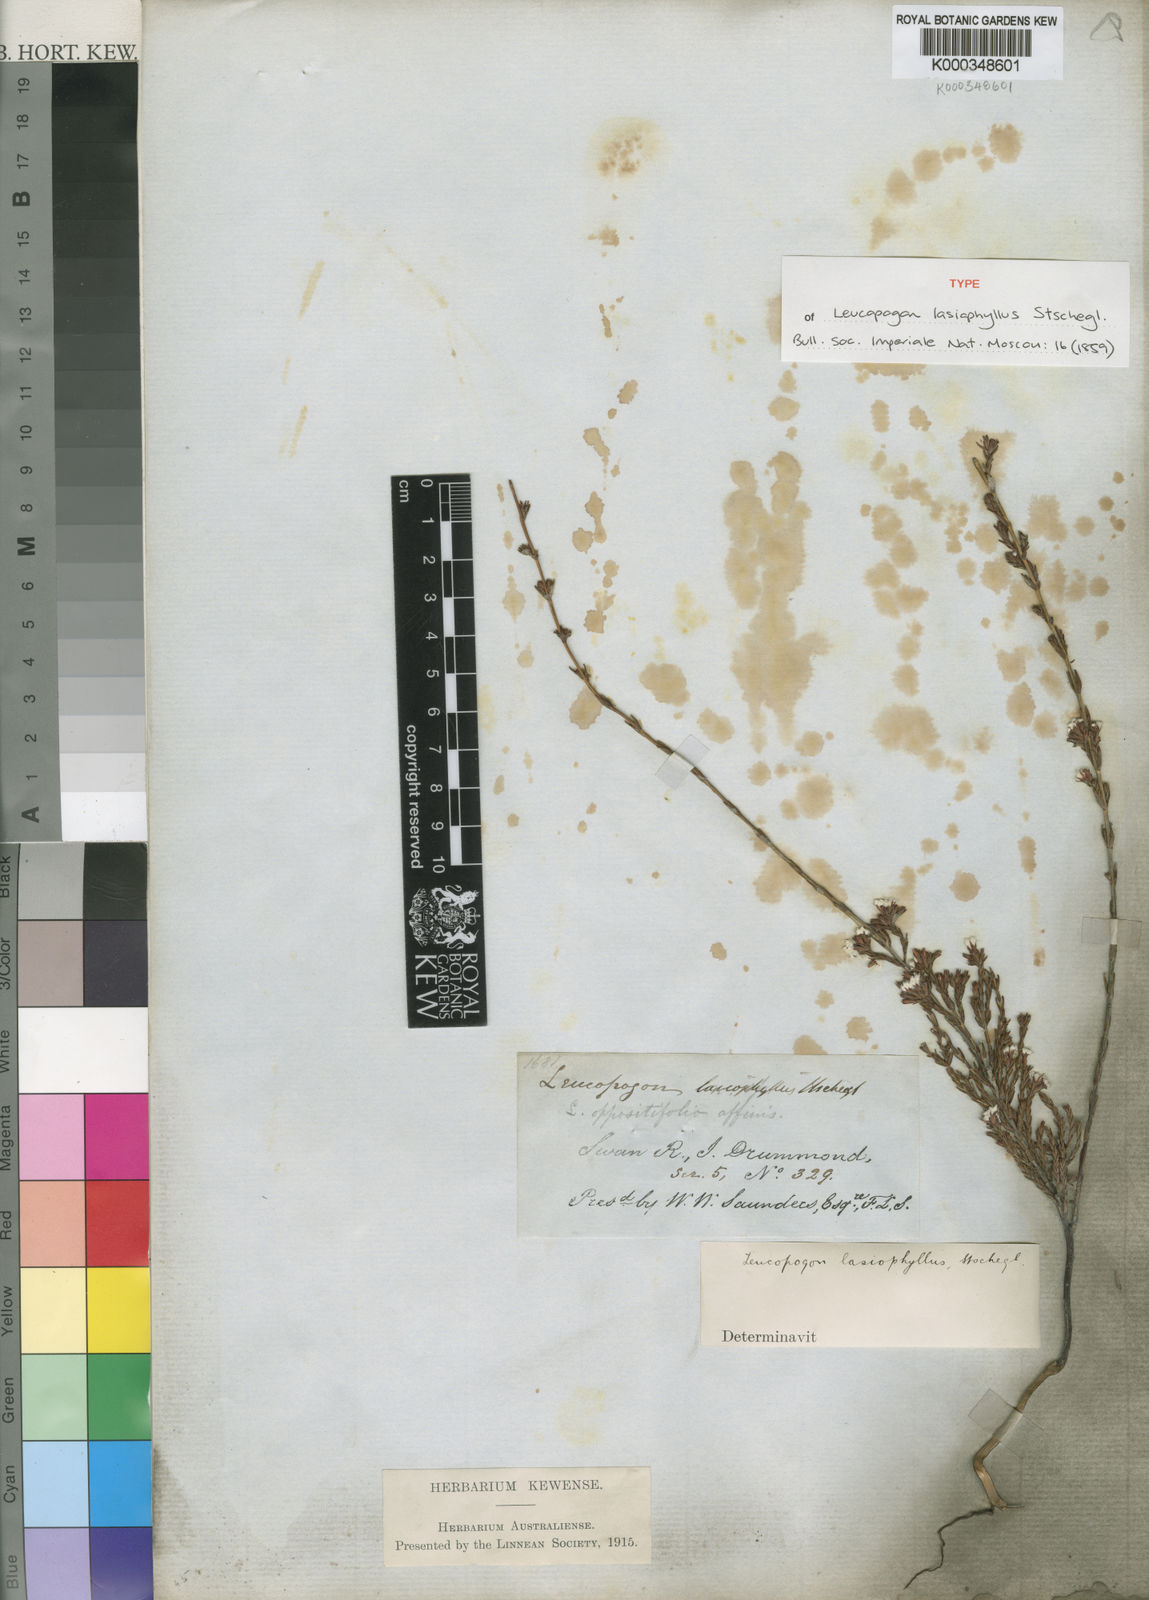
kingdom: Plantae
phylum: Tracheophyta
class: Magnoliopsida
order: Ericales
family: Ericaceae
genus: Leucopogon
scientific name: Leucopogon lasiophyllus
